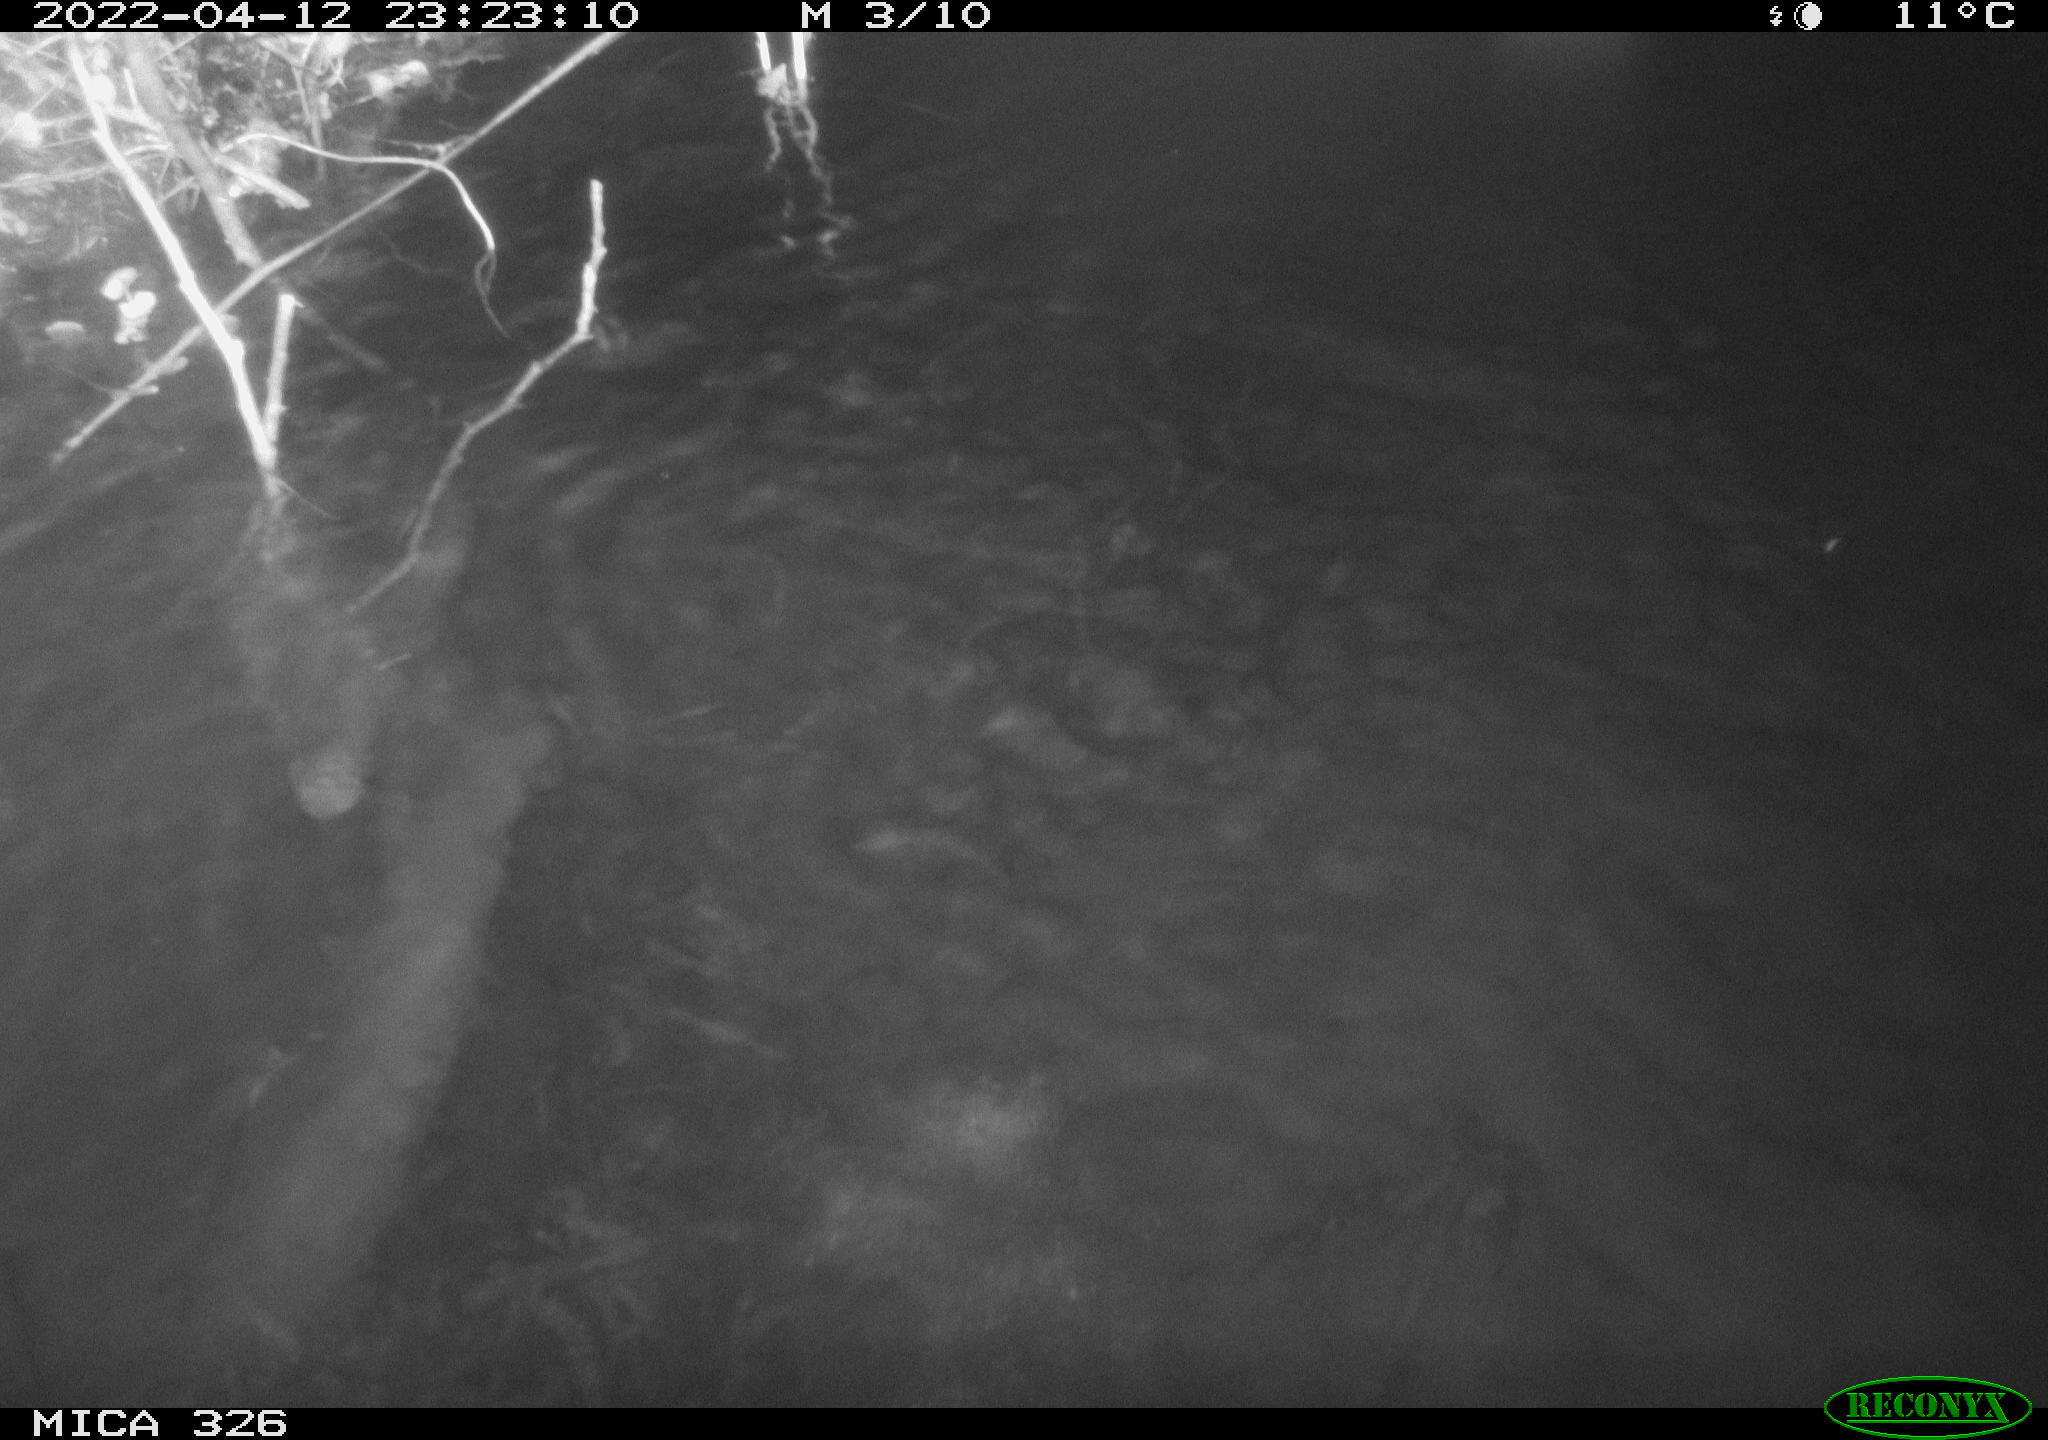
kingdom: Animalia
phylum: Chordata
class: Mammalia
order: Rodentia
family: Cricetidae
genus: Ondatra
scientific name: Ondatra zibethicus
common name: Muskrat
